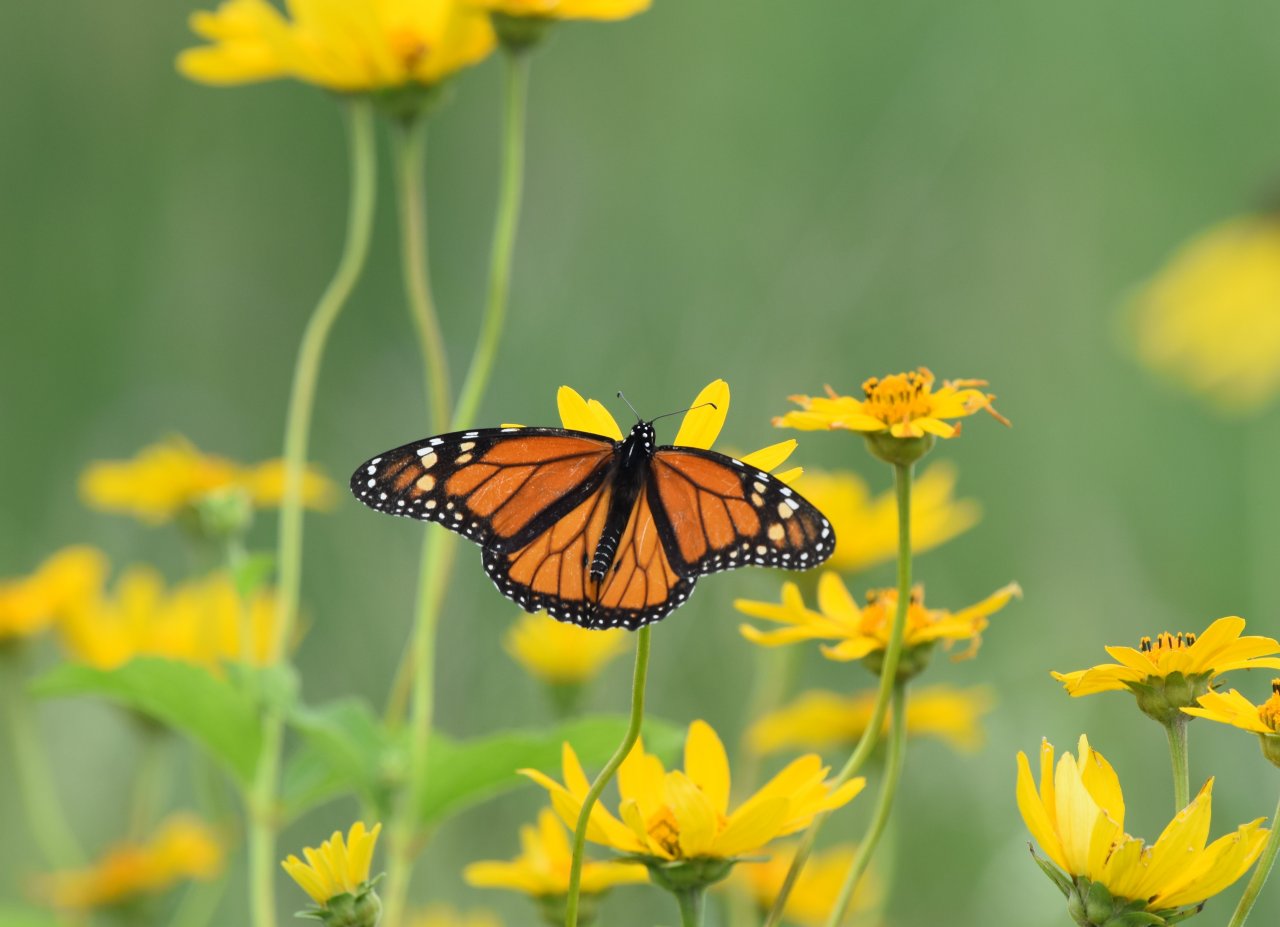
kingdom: Animalia
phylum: Arthropoda
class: Insecta
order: Lepidoptera
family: Nymphalidae
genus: Danaus
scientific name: Danaus plexippus
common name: Monarch
